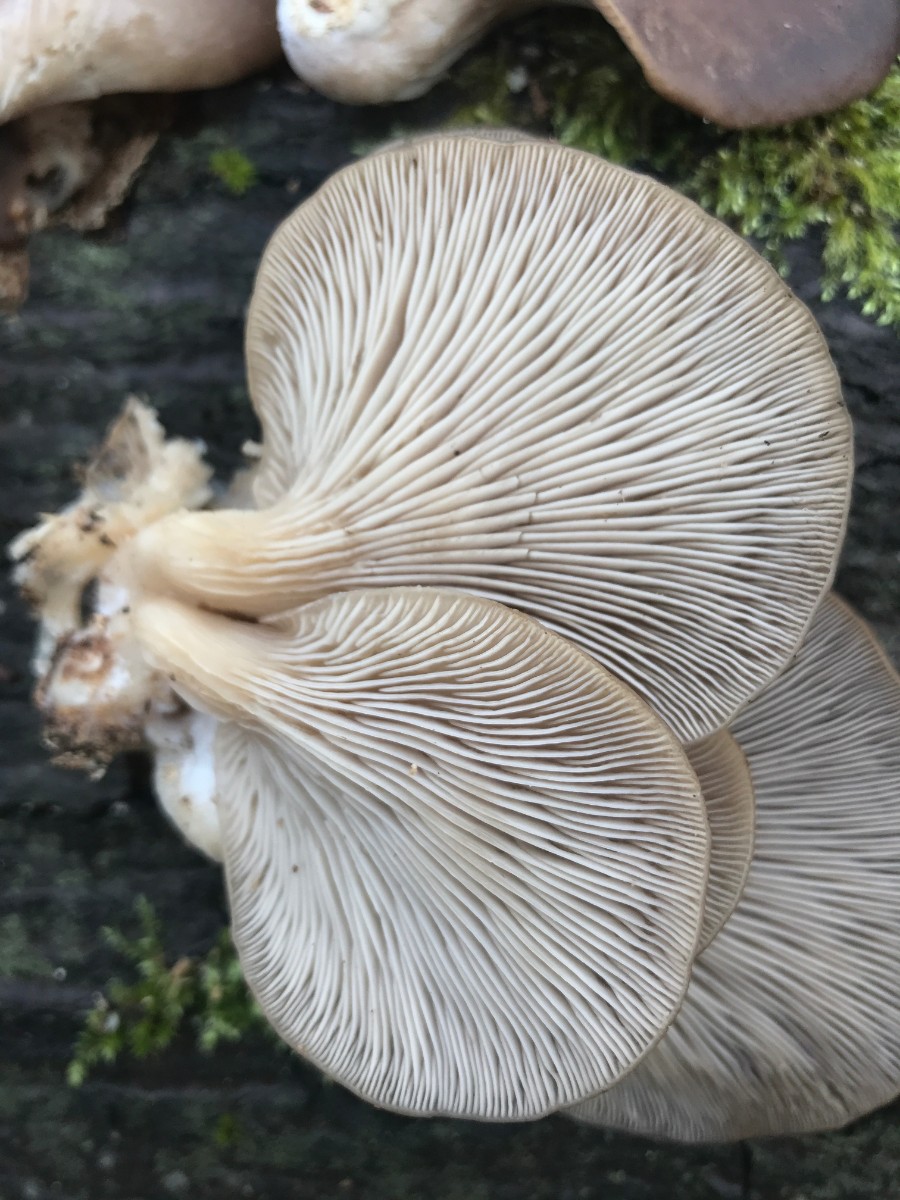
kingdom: Fungi
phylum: Basidiomycota
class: Agaricomycetes
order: Agaricales
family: Pleurotaceae
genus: Pleurotus
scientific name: Pleurotus ostreatus
